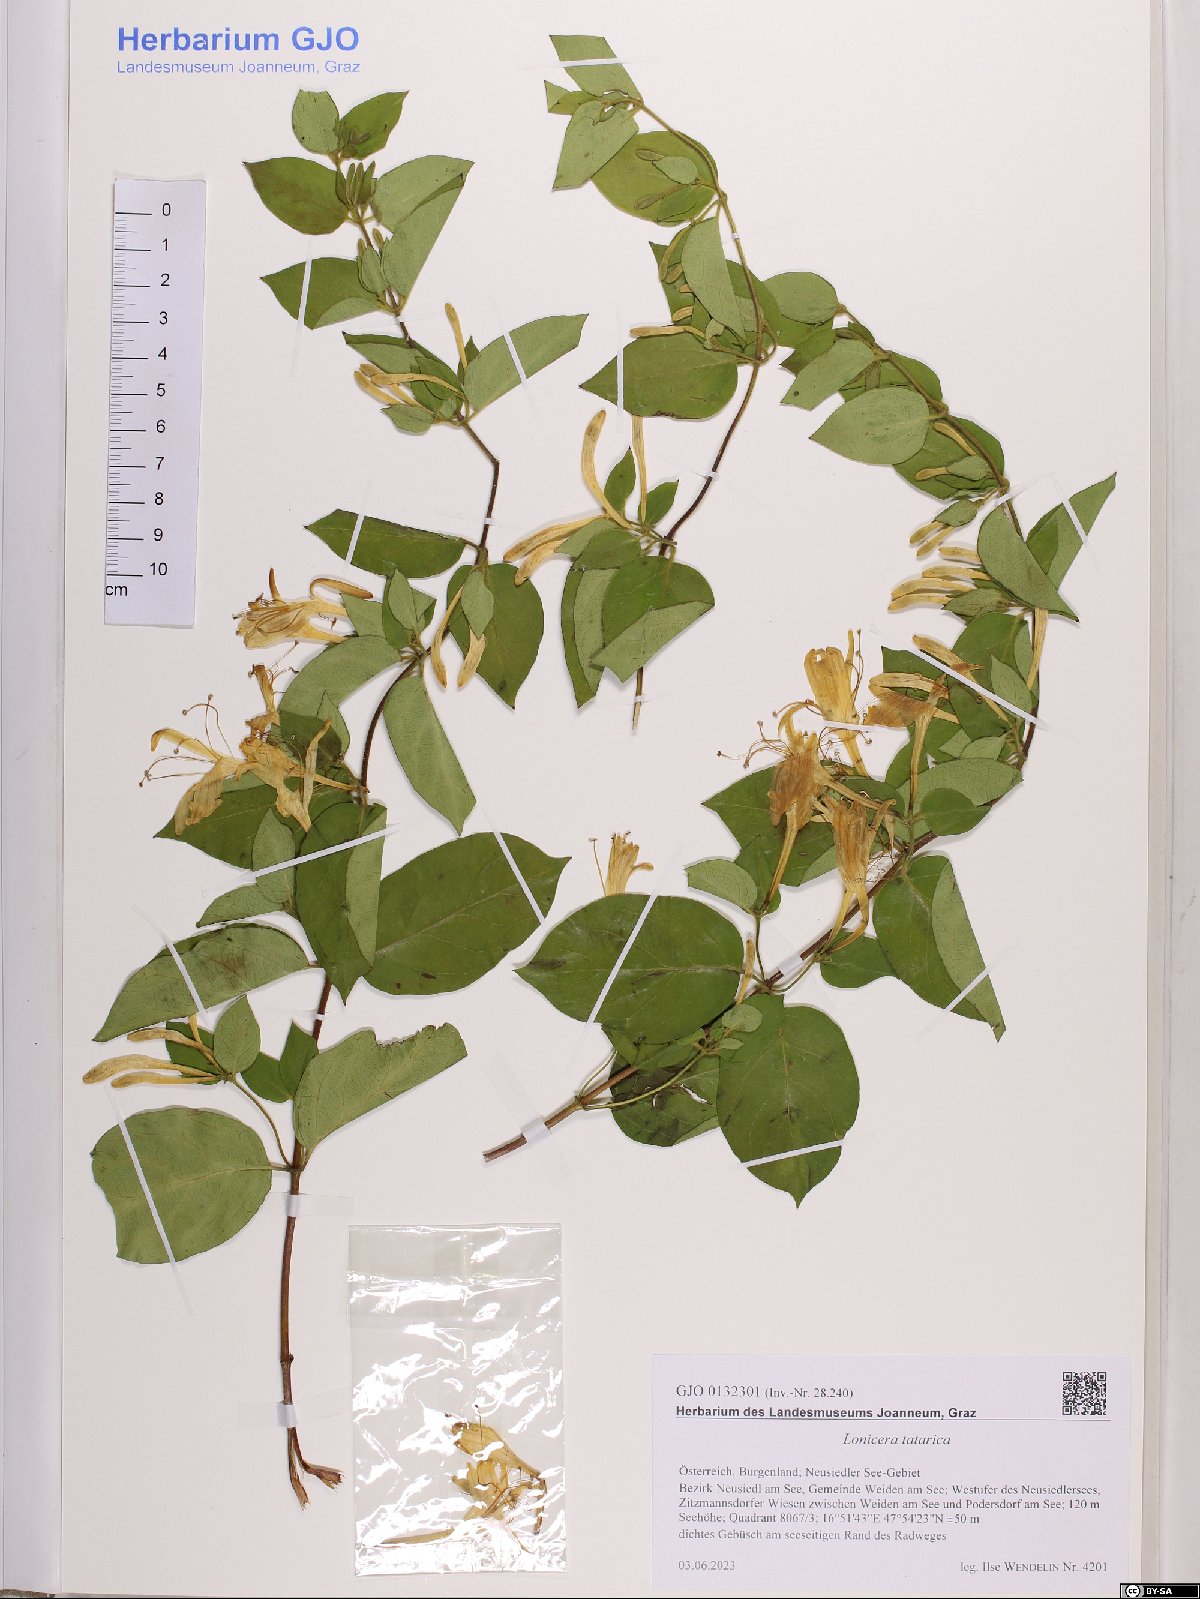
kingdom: Plantae
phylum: Tracheophyta
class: Magnoliopsida
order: Dipsacales
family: Caprifoliaceae
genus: Lonicera
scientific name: Lonicera tatarica
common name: Tatarian honeysuckle
